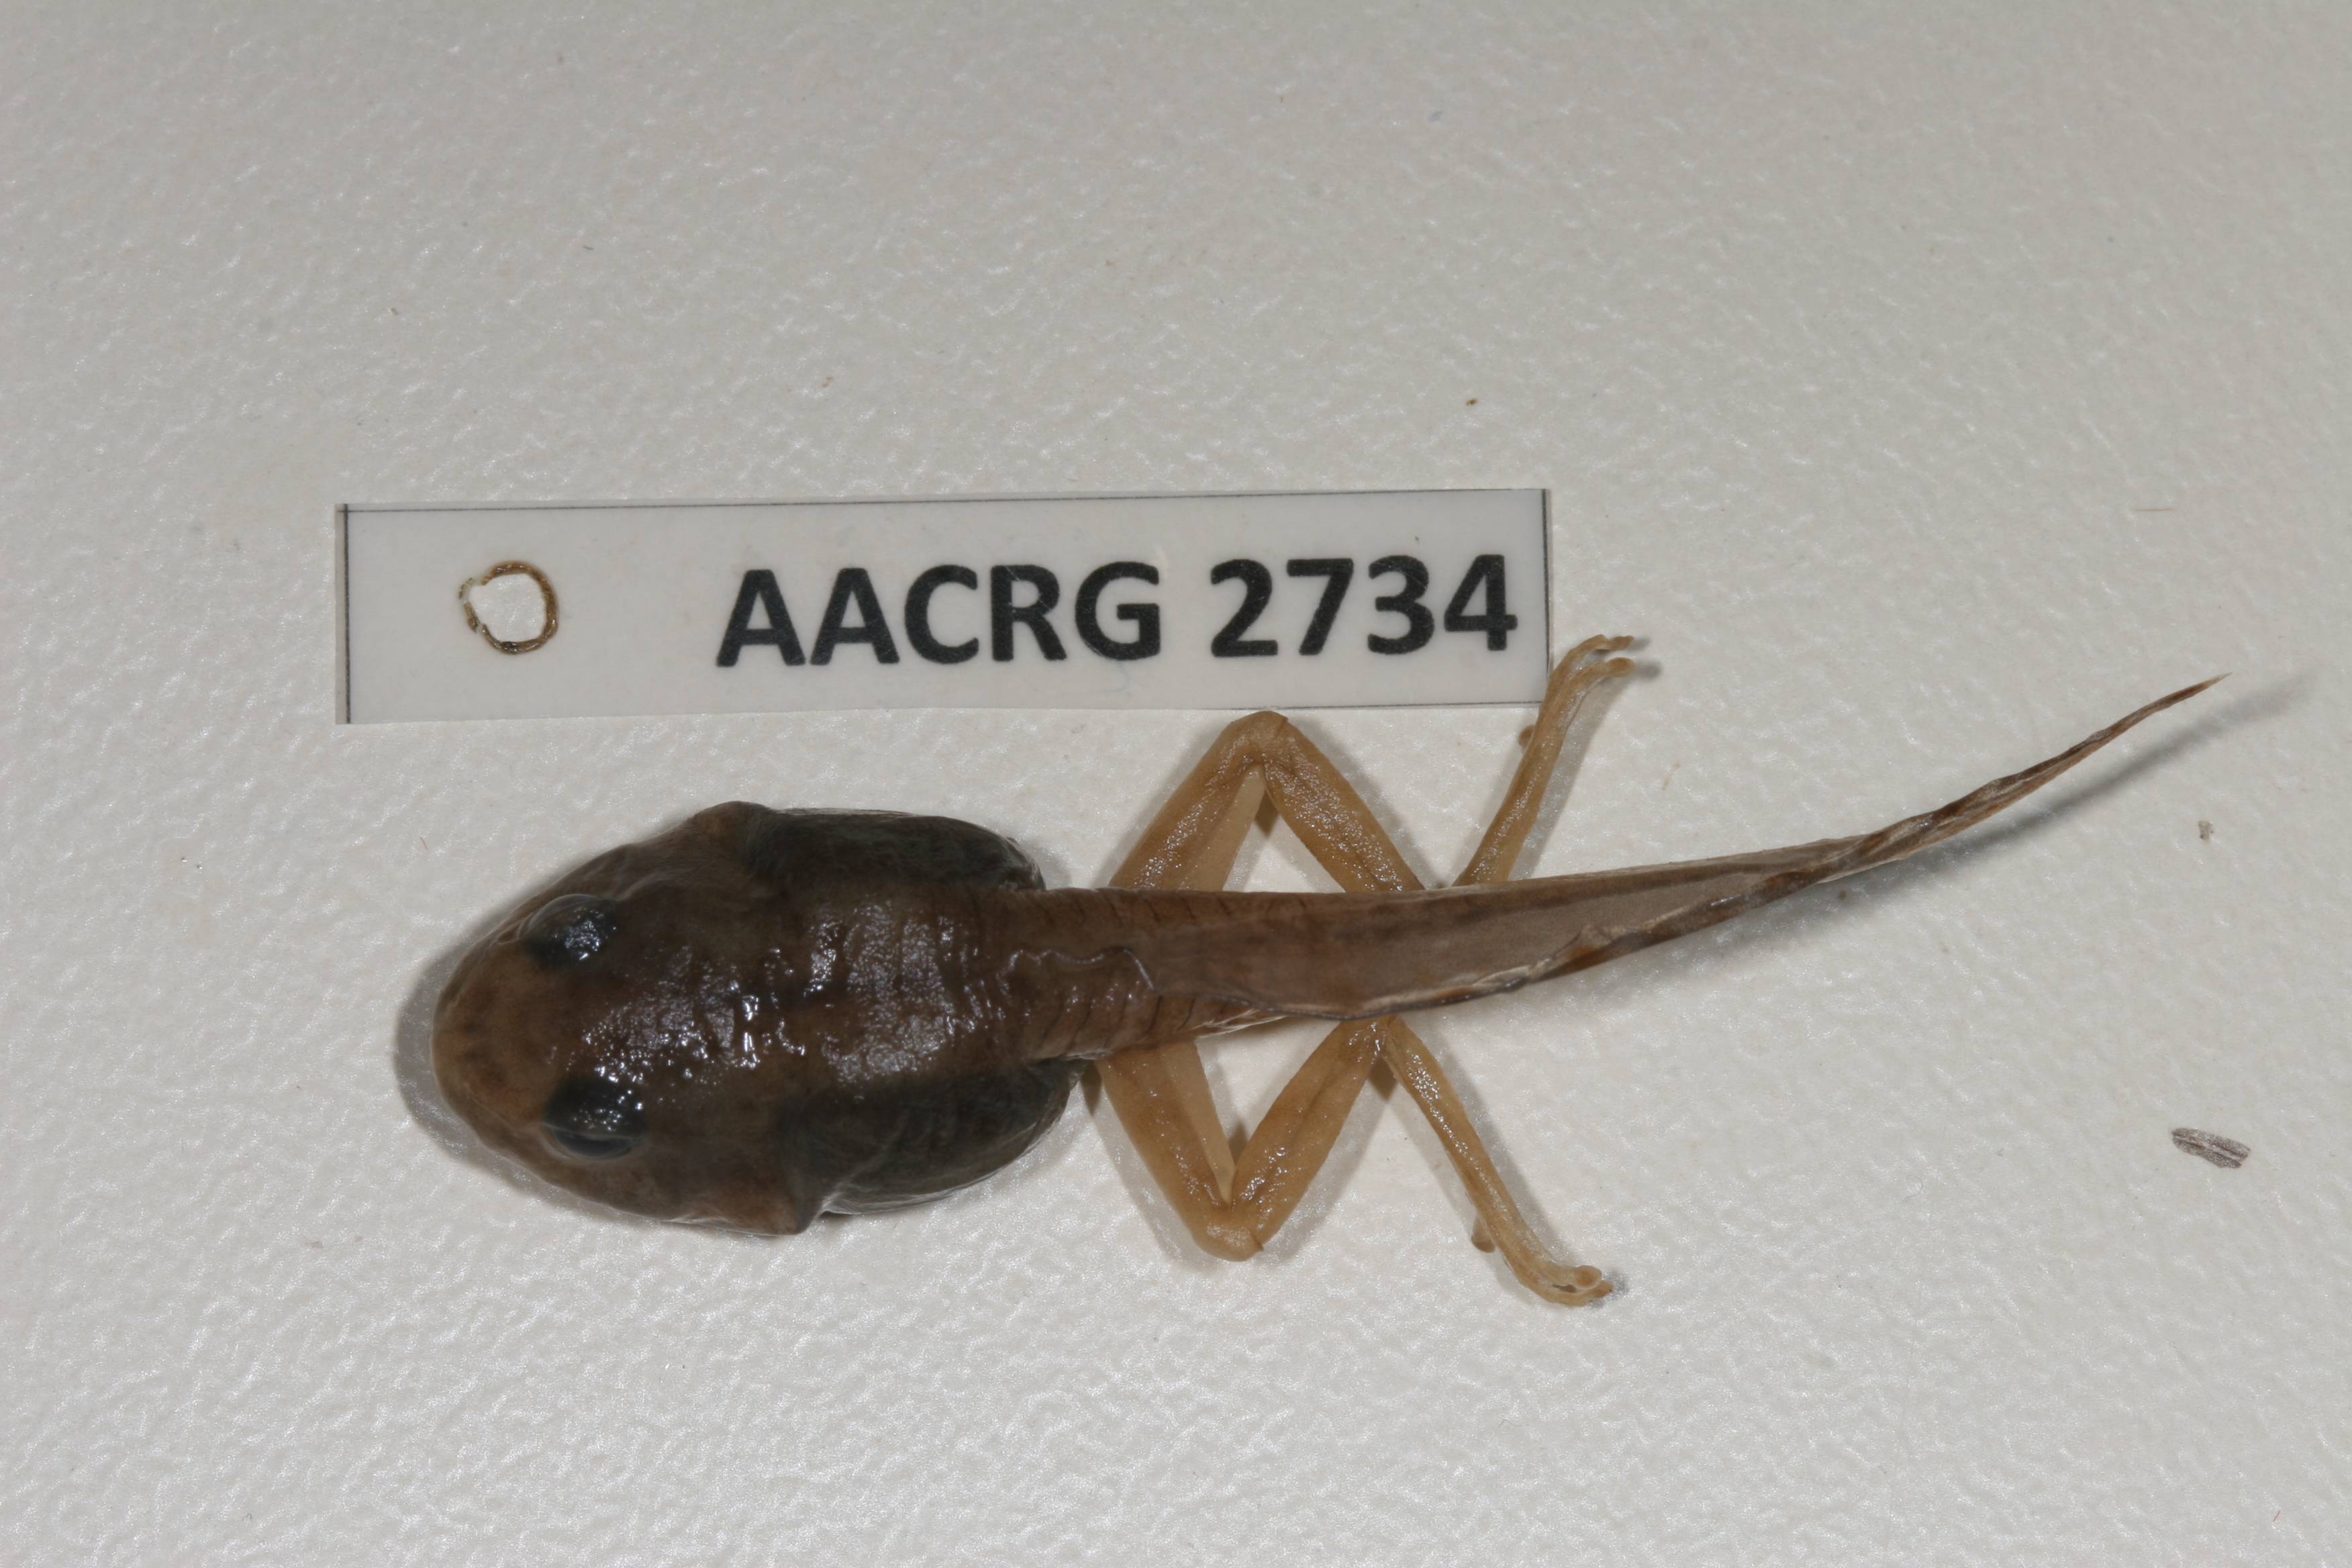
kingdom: Animalia
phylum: Chordata
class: Amphibia
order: Anura
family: Rhacophoridae
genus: Chiromantis
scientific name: Chiromantis xerampelina
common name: African gray treefrog
